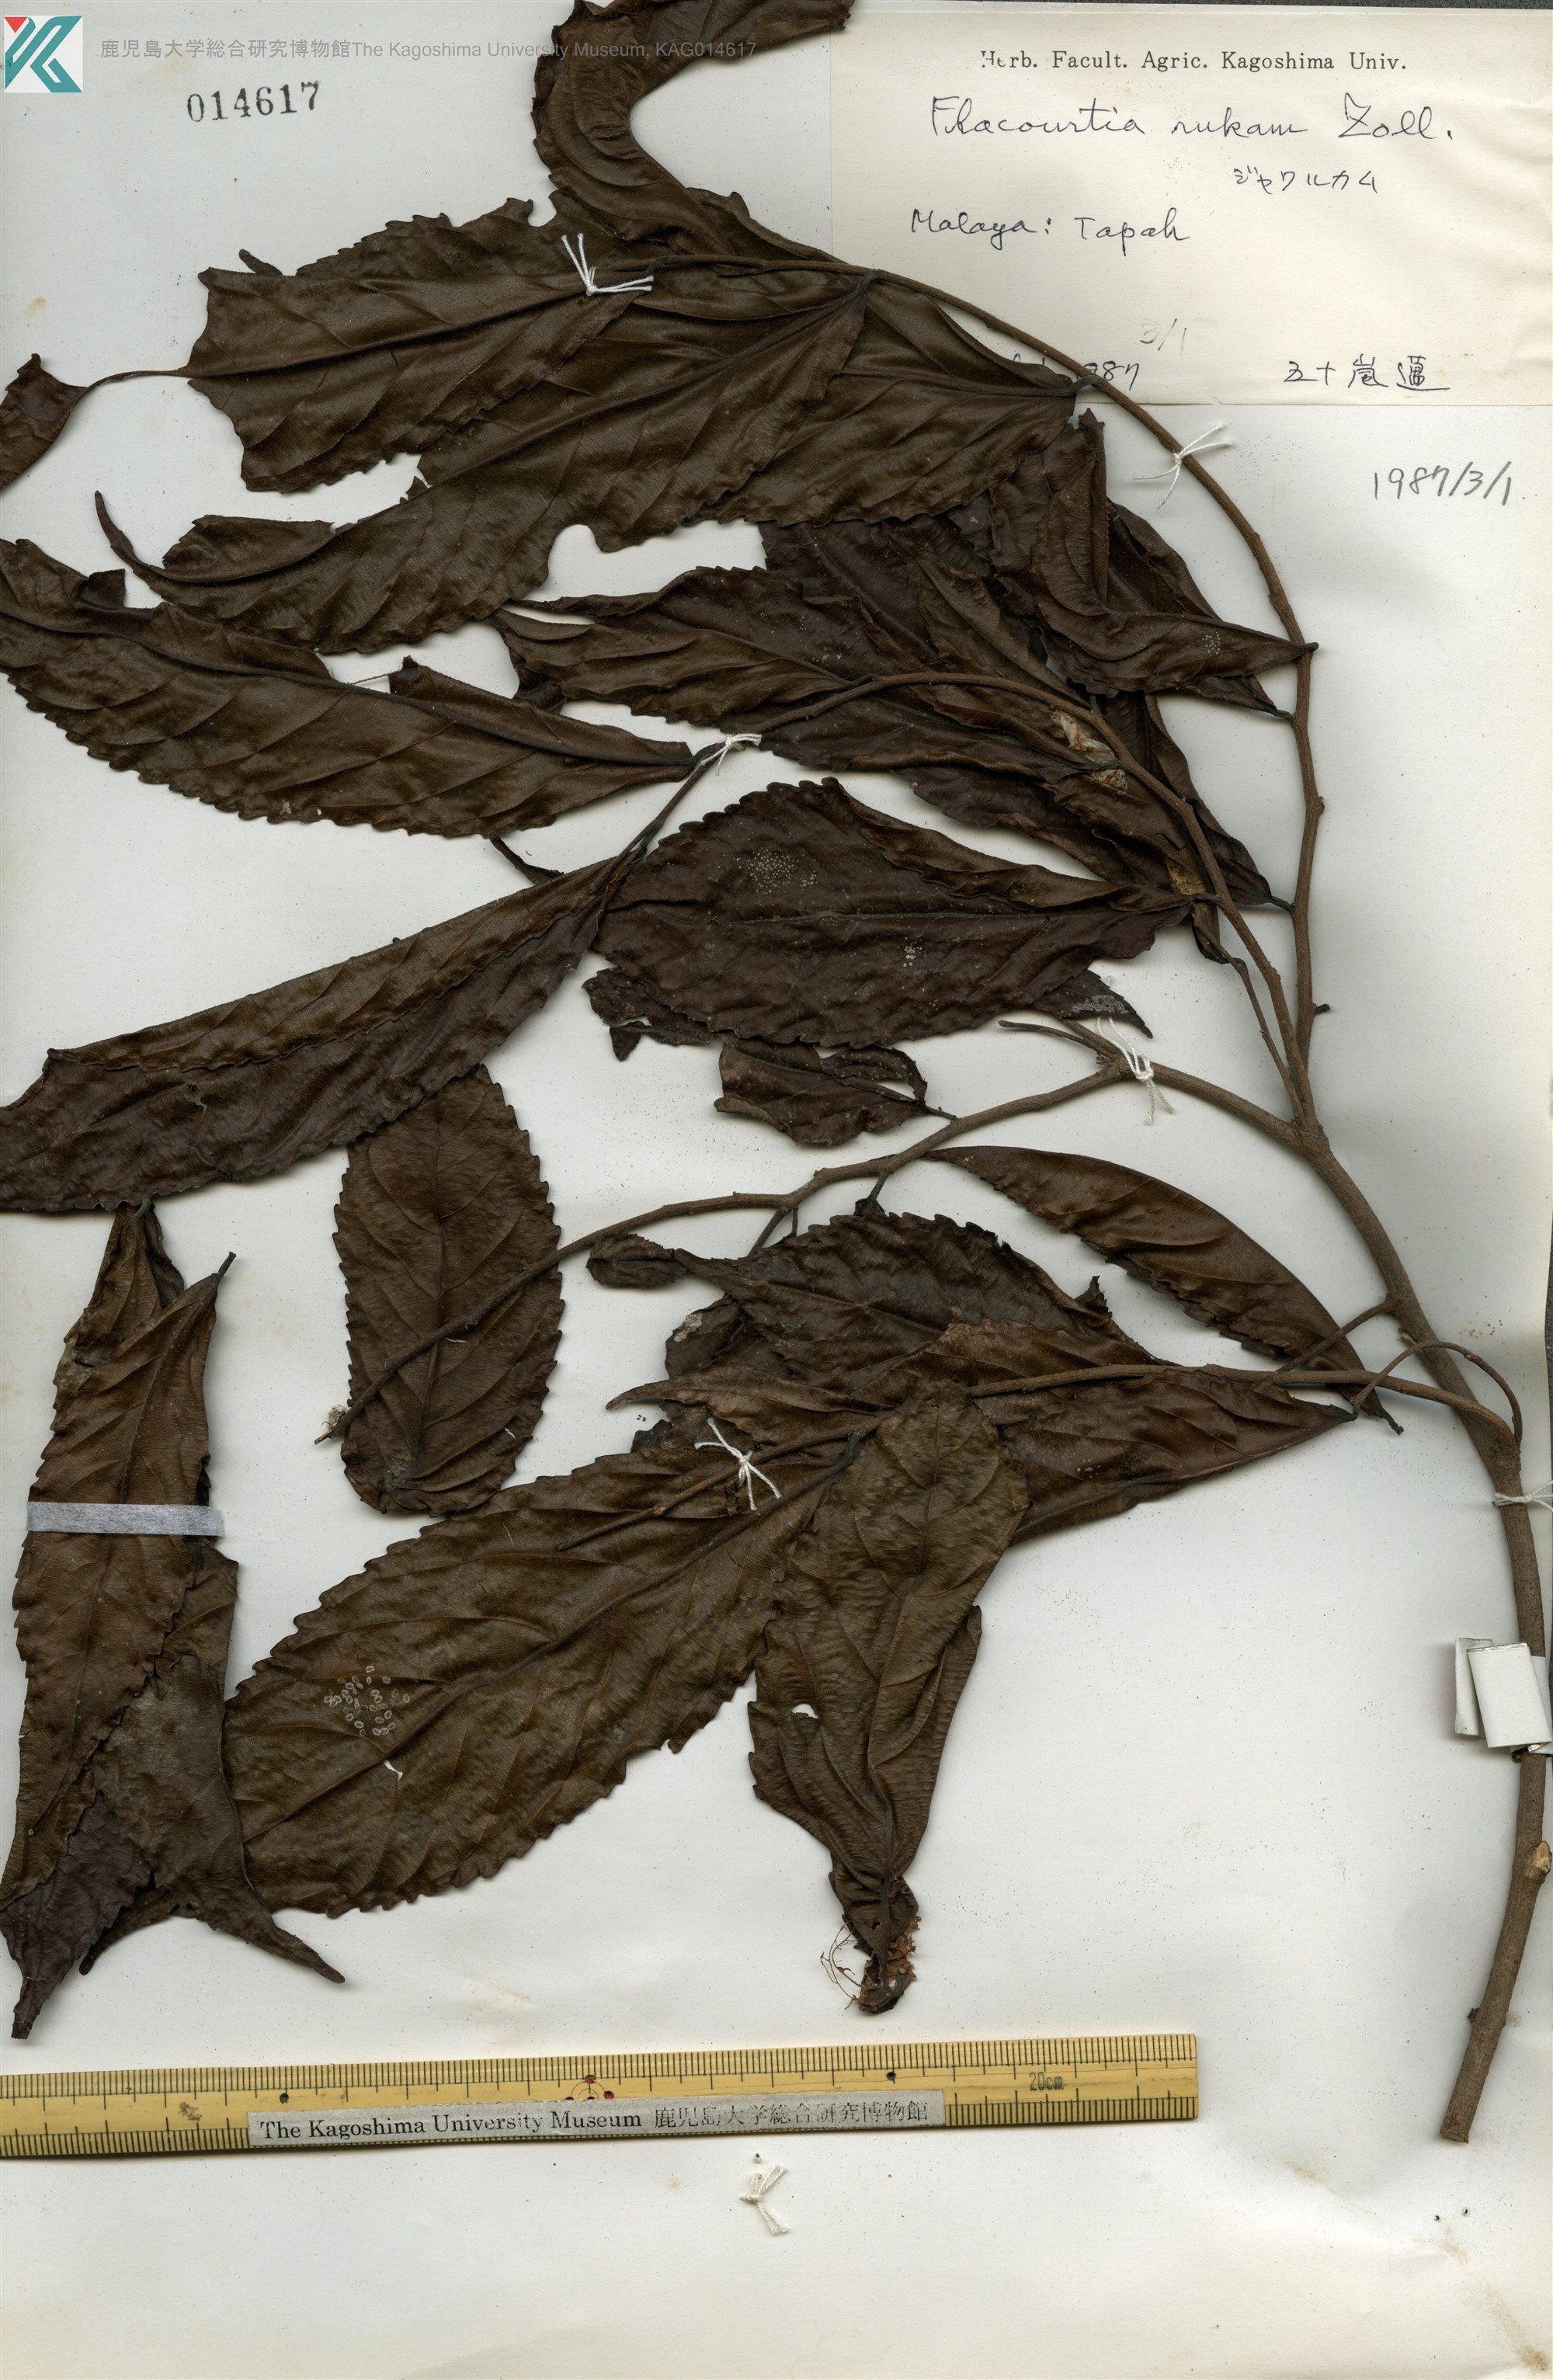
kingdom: Plantae
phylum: Tracheophyta
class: Magnoliopsida
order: Malpighiales
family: Salicaceae
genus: Flacourtia
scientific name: Flacourtia jangomas
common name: Indian-plum
